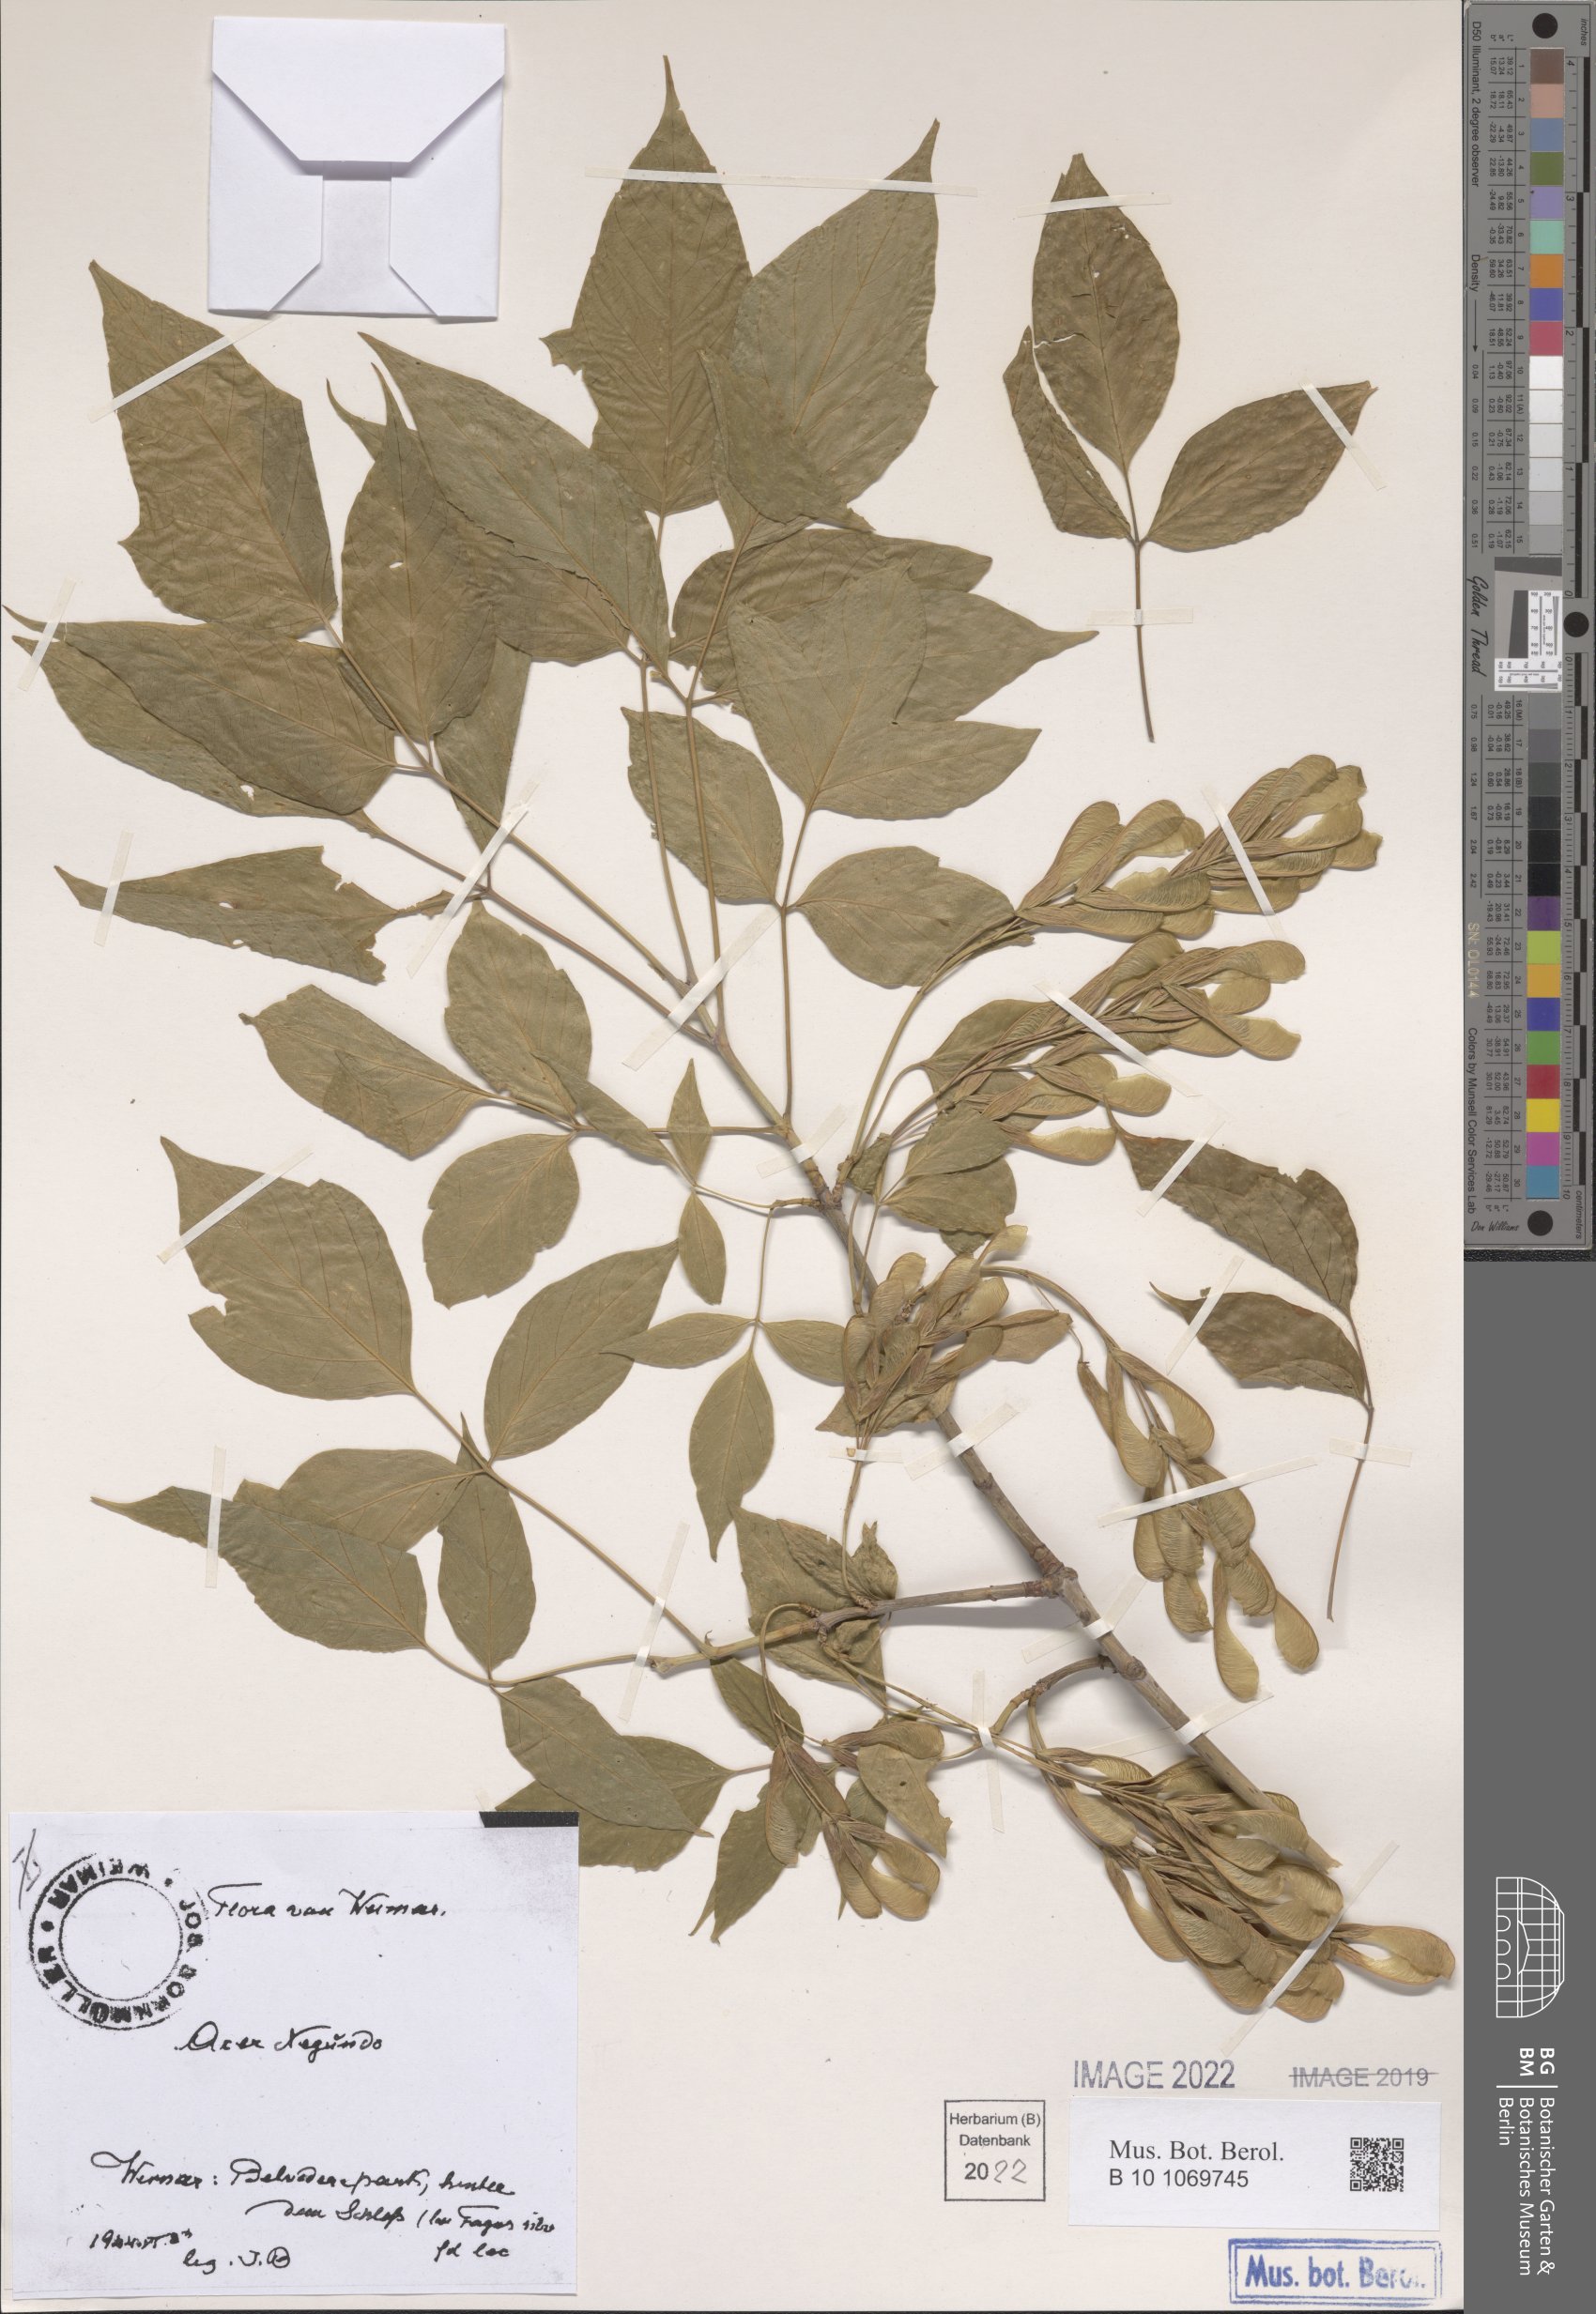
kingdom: Plantae
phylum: Tracheophyta
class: Magnoliopsida
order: Sapindales
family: Sapindaceae
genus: Acer
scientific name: Acer negundo
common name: Ashleaf maple
